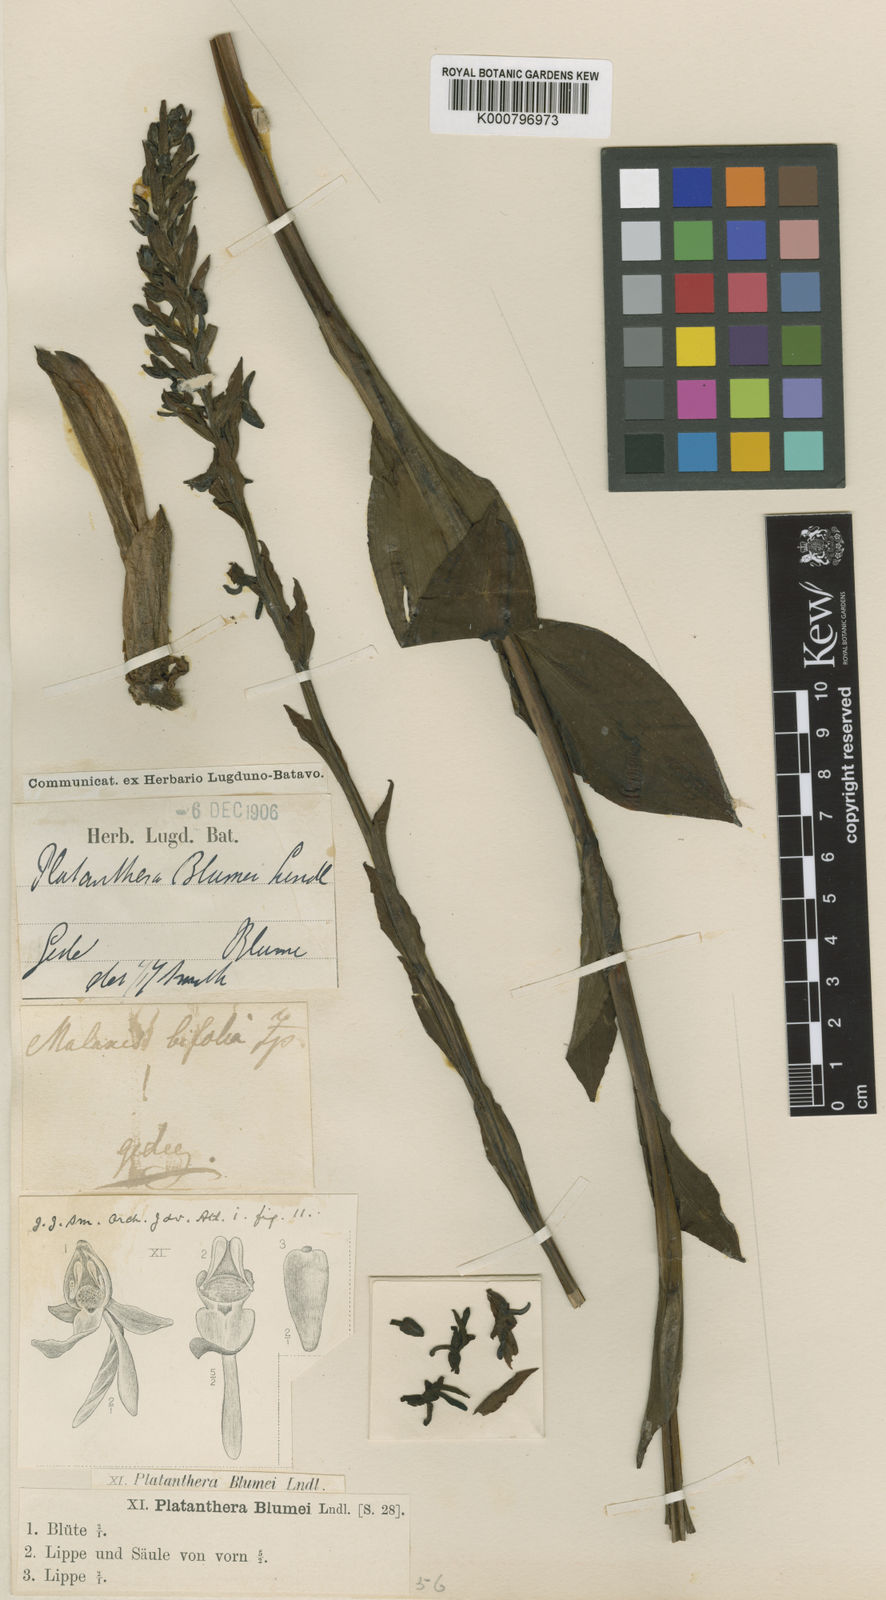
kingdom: Plantae
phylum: Tracheophyta
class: Liliopsida
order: Asparagales
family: Orchidaceae
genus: Platanthera
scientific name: Platanthera blumei
